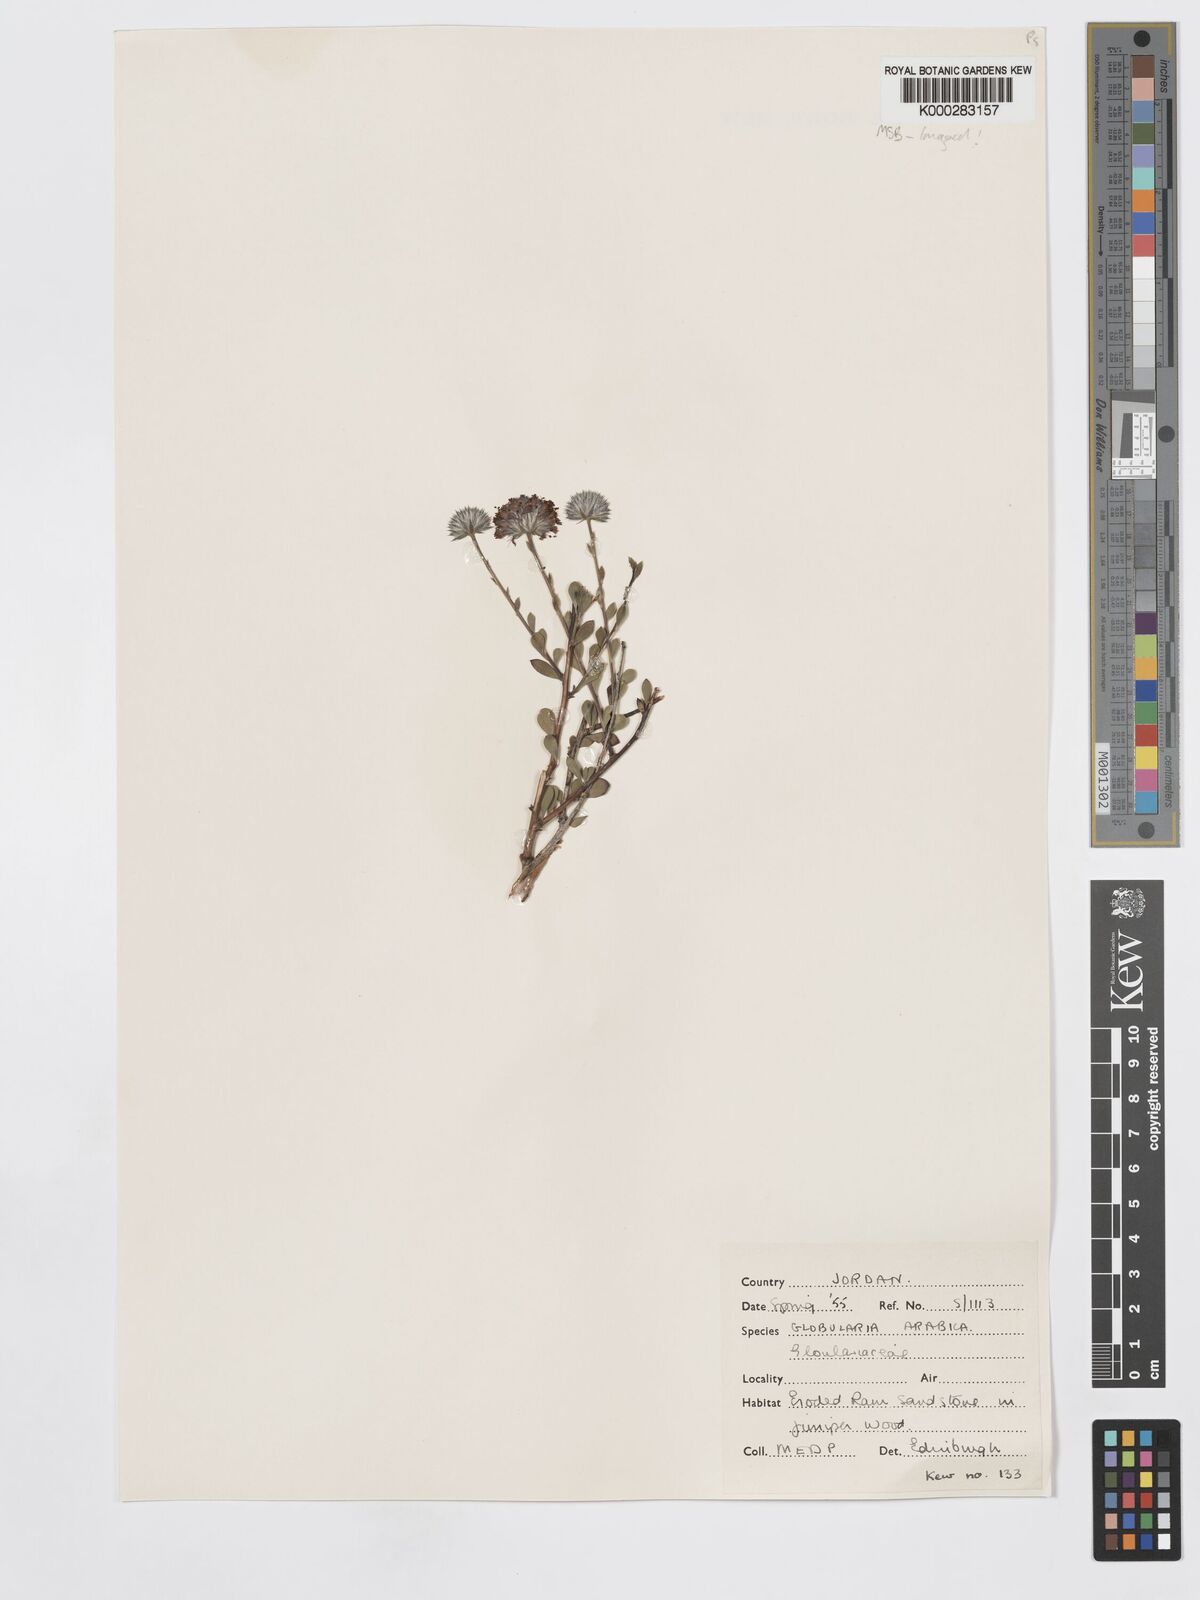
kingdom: Plantae
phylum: Tracheophyta
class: Magnoliopsida
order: Lamiales
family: Plantaginaceae
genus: Globularia
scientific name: Globularia arabica
